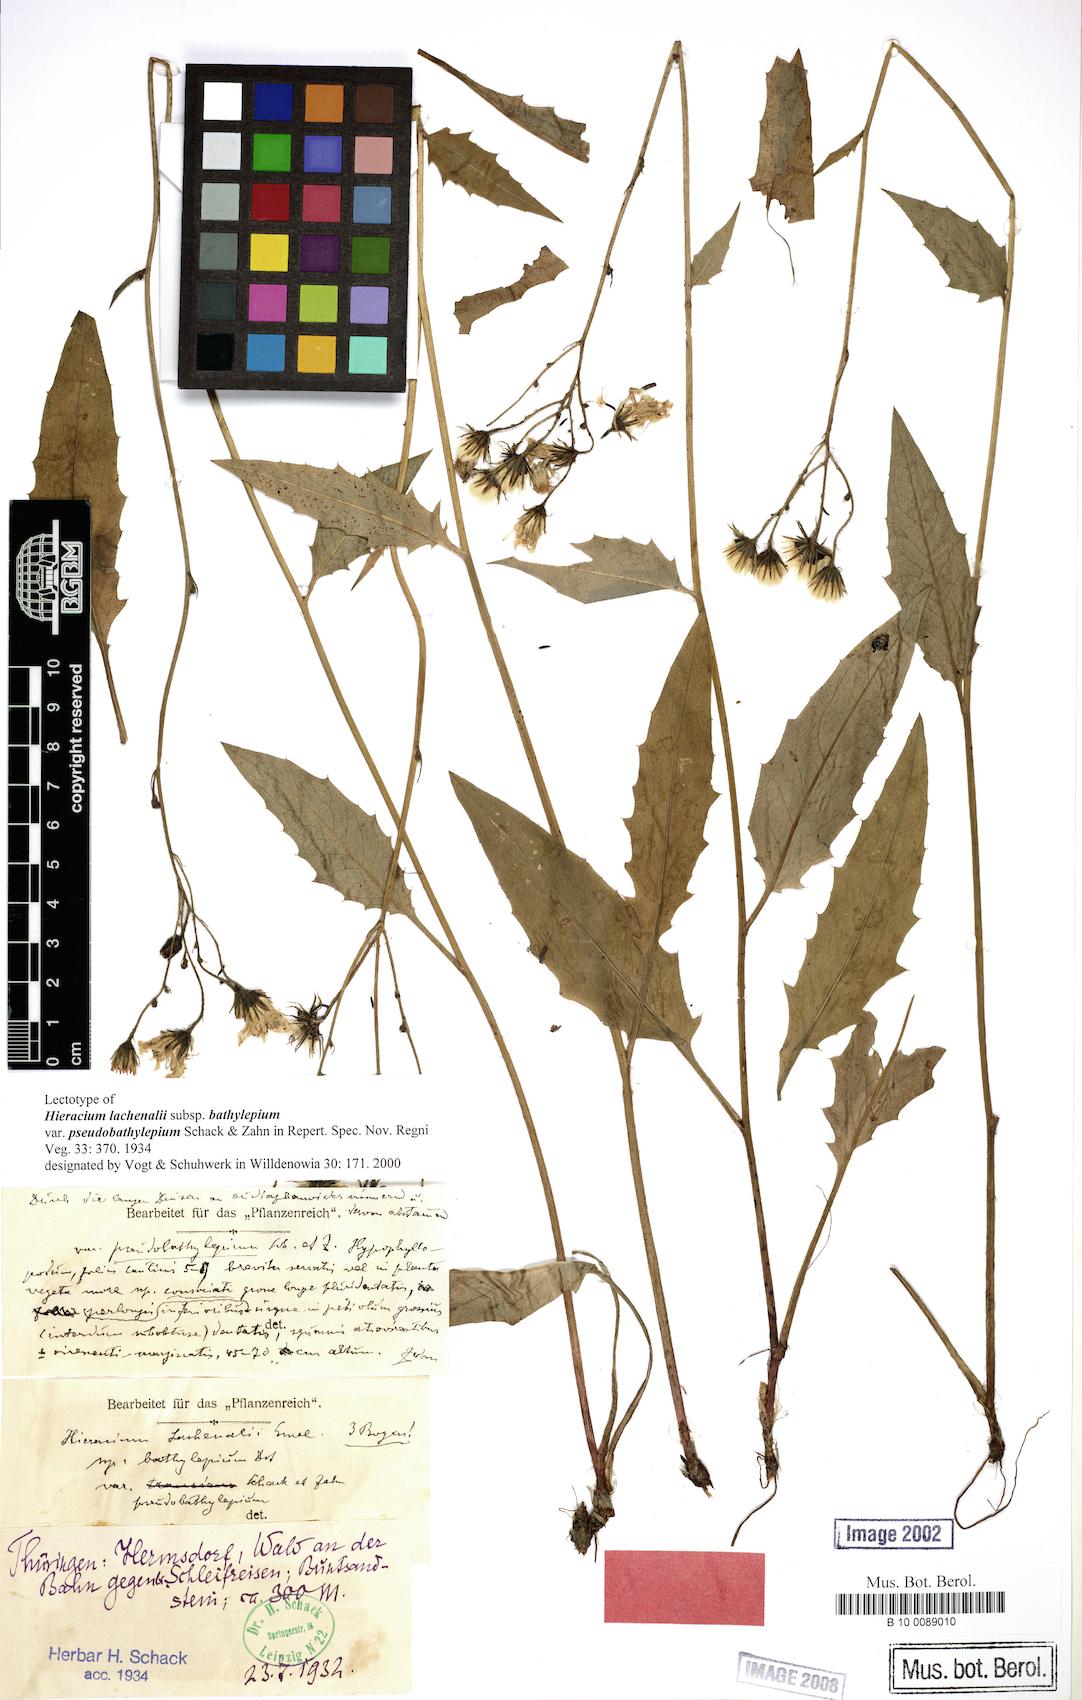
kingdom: Plantae
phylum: Tracheophyta
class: Magnoliopsida
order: Asterales
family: Asteraceae
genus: Hieracium
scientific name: Hieracium lachenalii
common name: Common hawkweed
